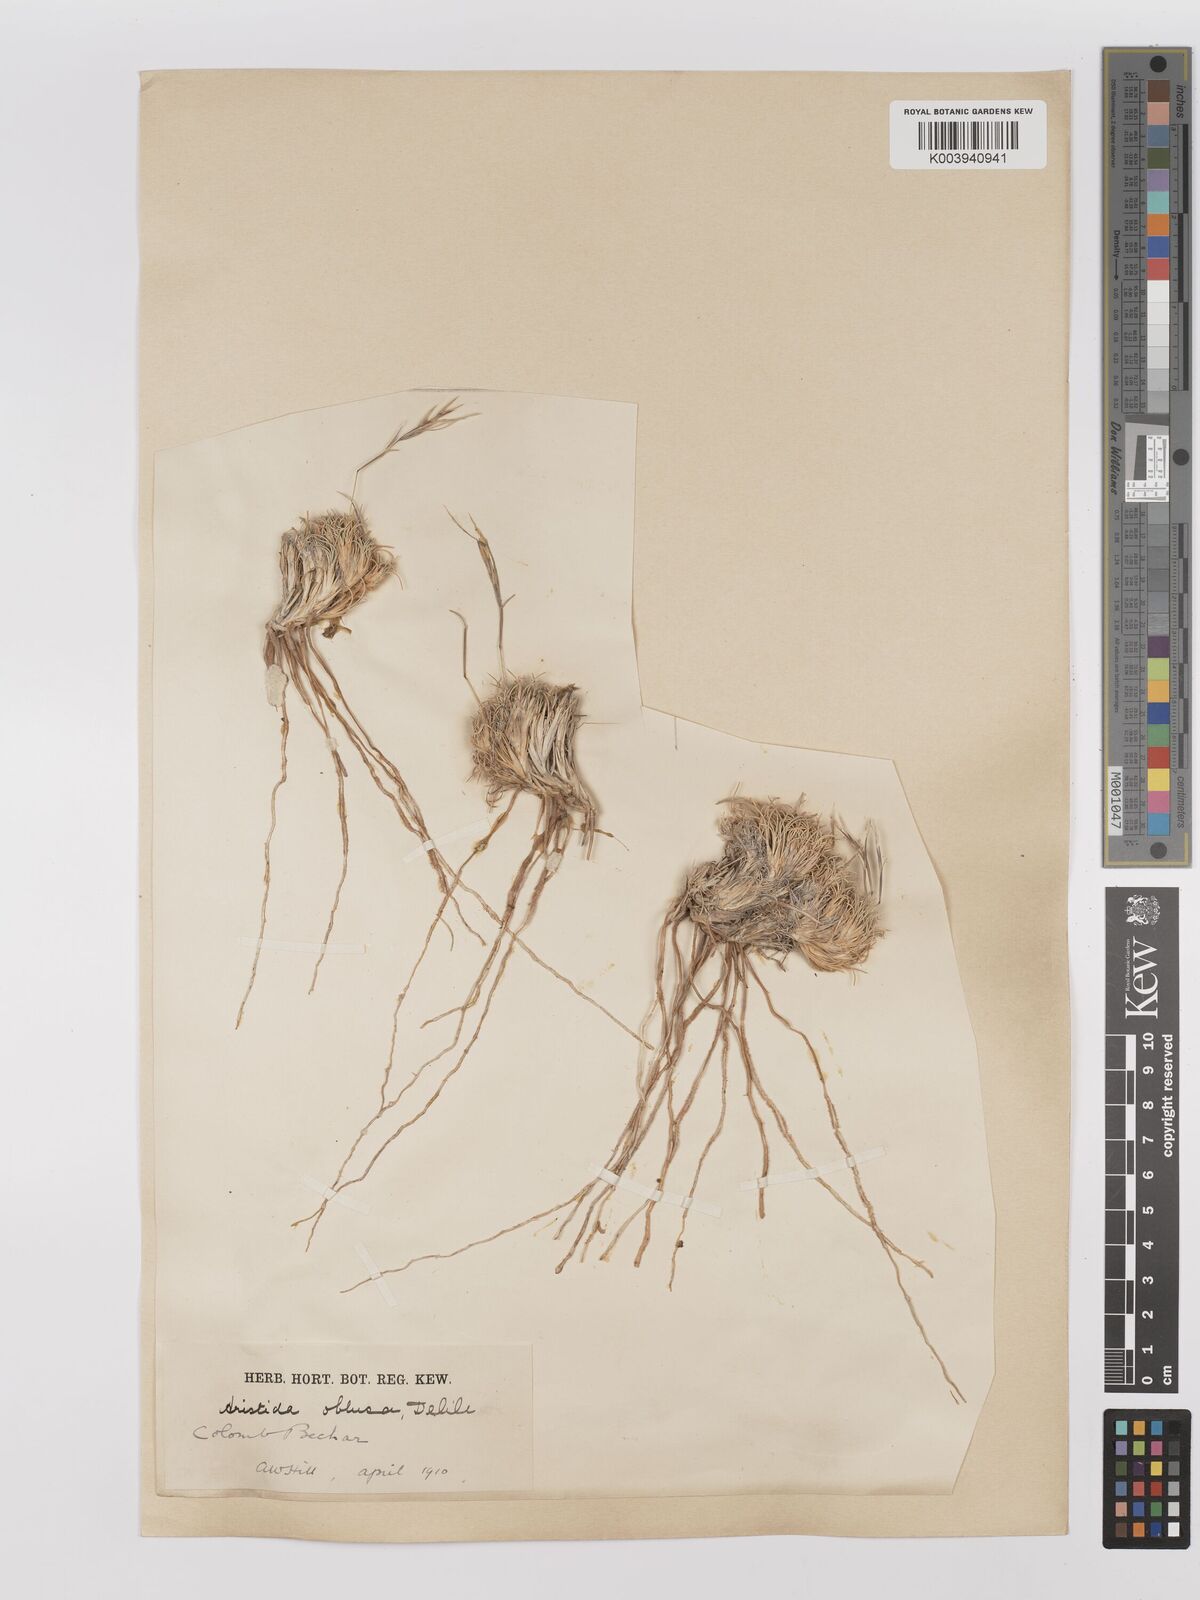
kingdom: Plantae
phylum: Tracheophyta
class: Liliopsida
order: Poales
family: Poaceae
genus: Stipagrostis
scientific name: Stipagrostis obtusa
